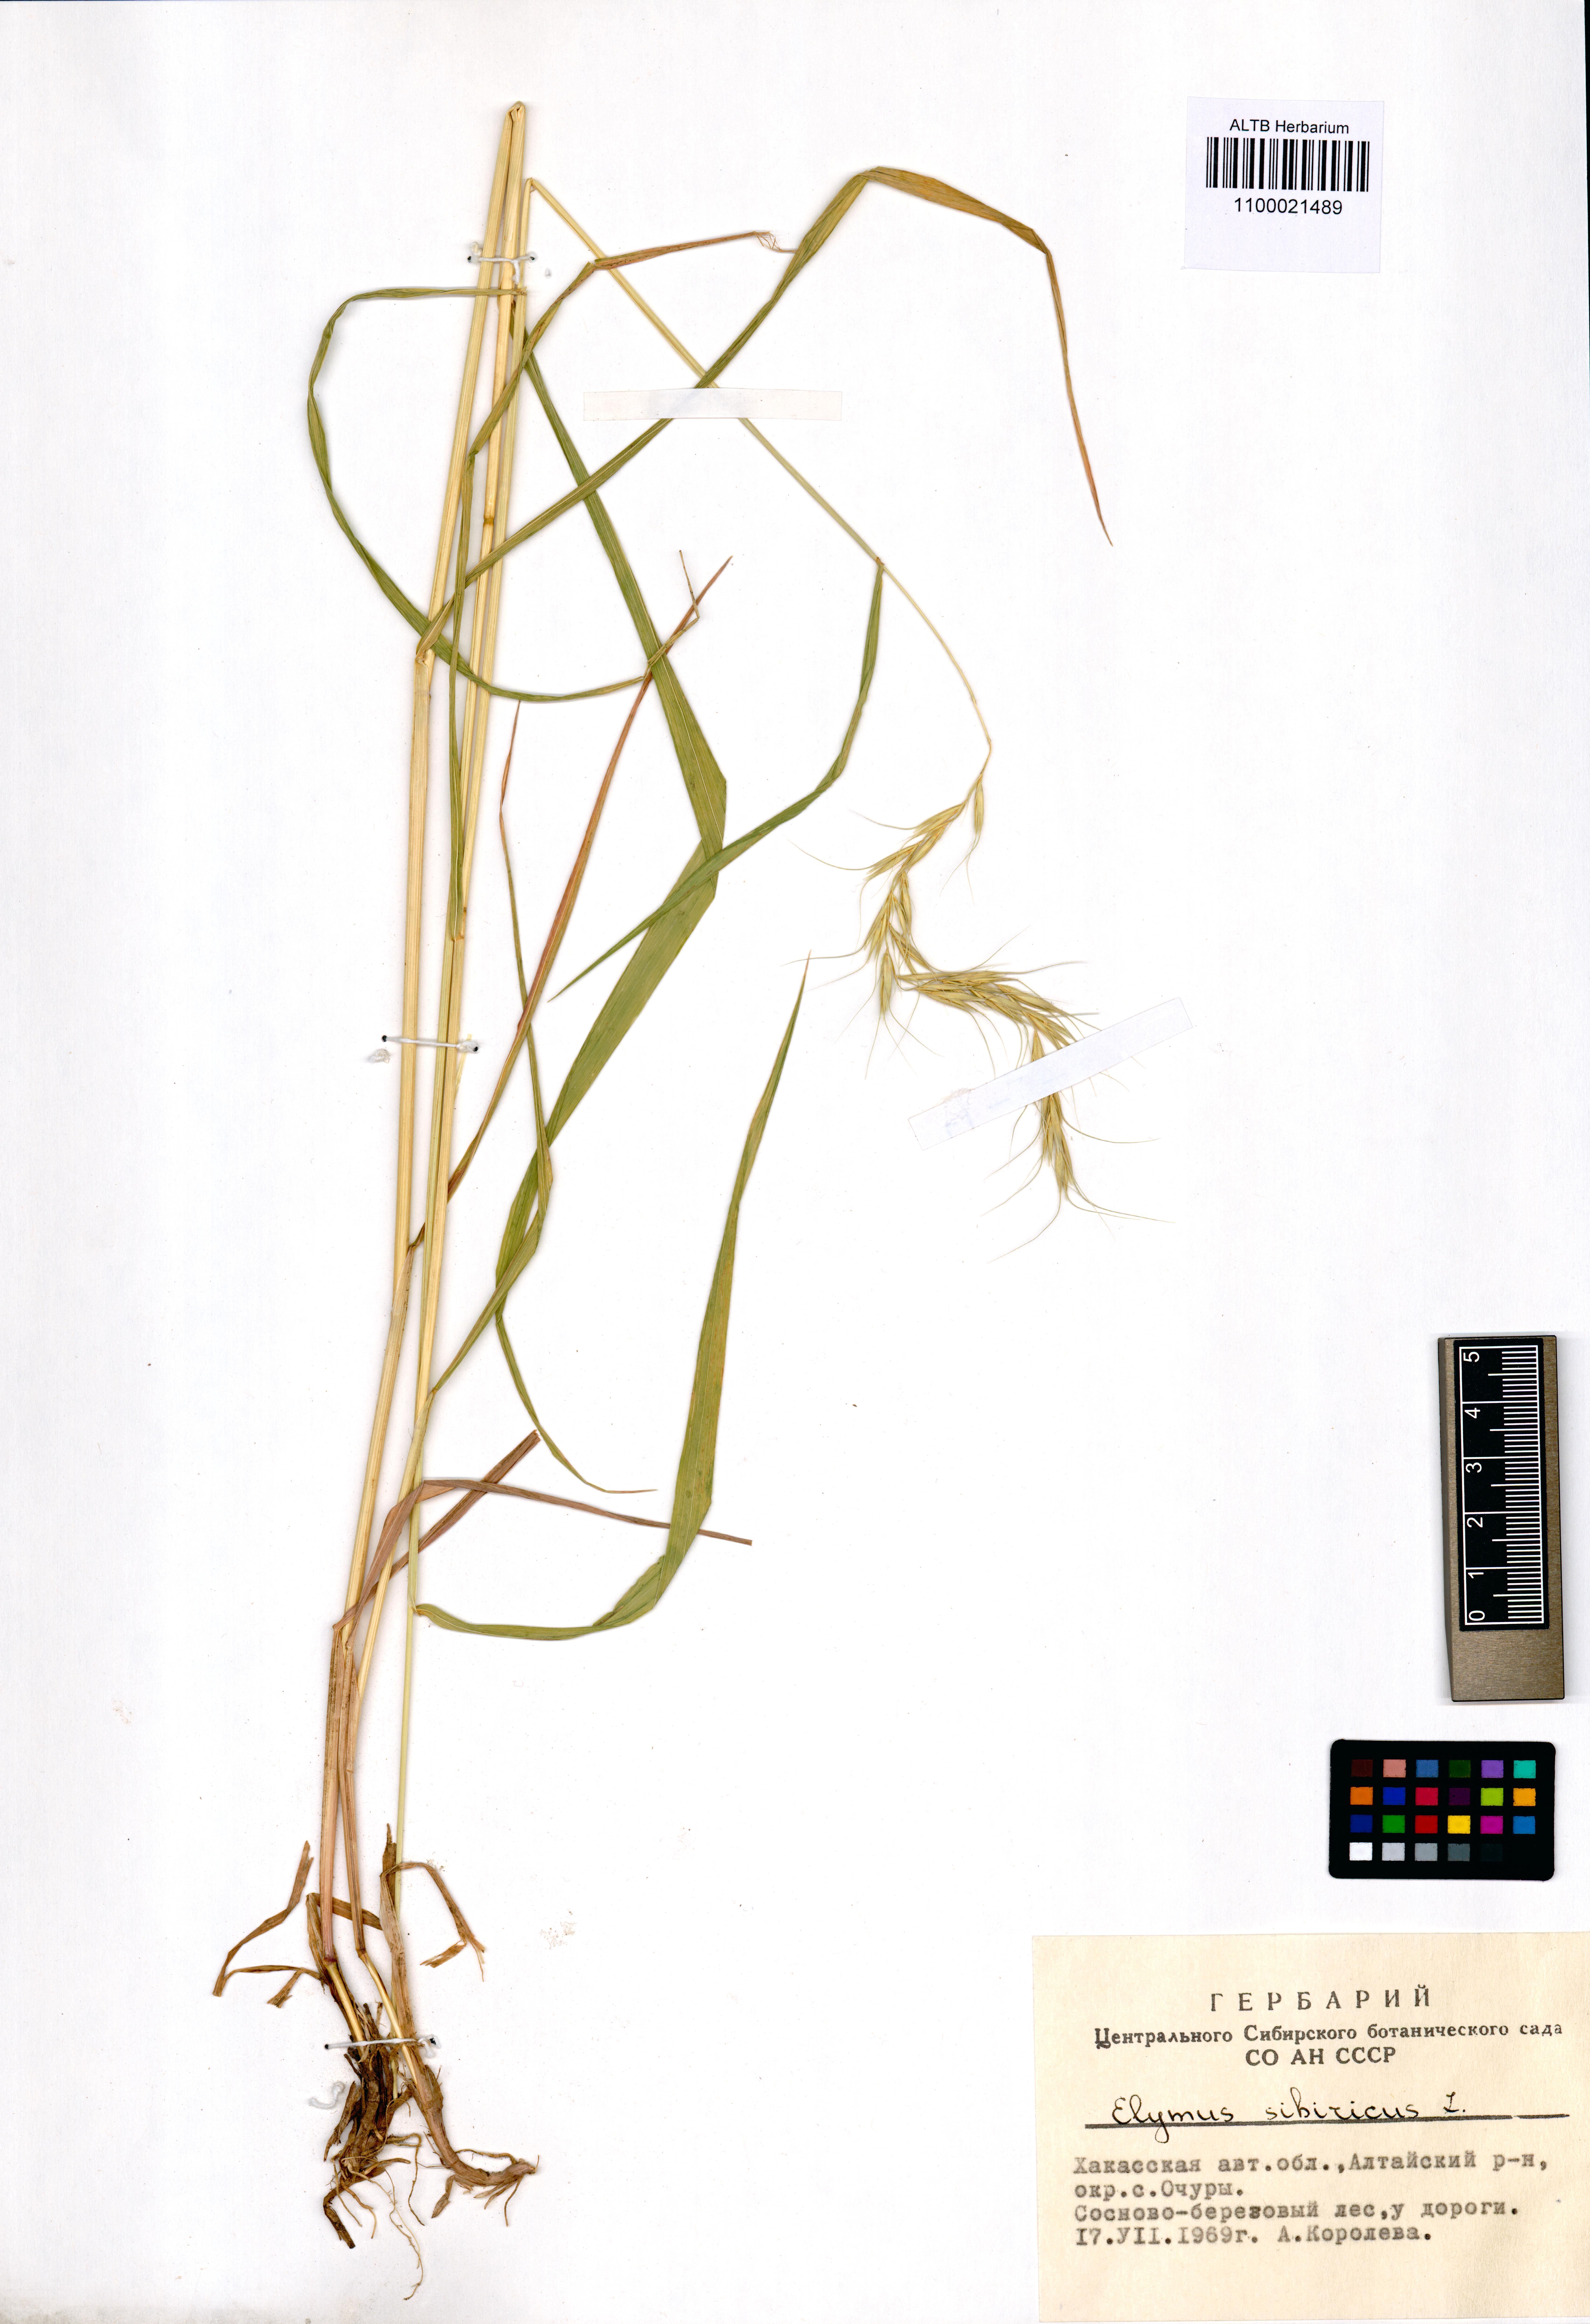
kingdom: Plantae
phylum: Tracheophyta
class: Liliopsida
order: Poales
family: Poaceae
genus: Elymus
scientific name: Elymus sibiricus
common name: Siberian wildrye
